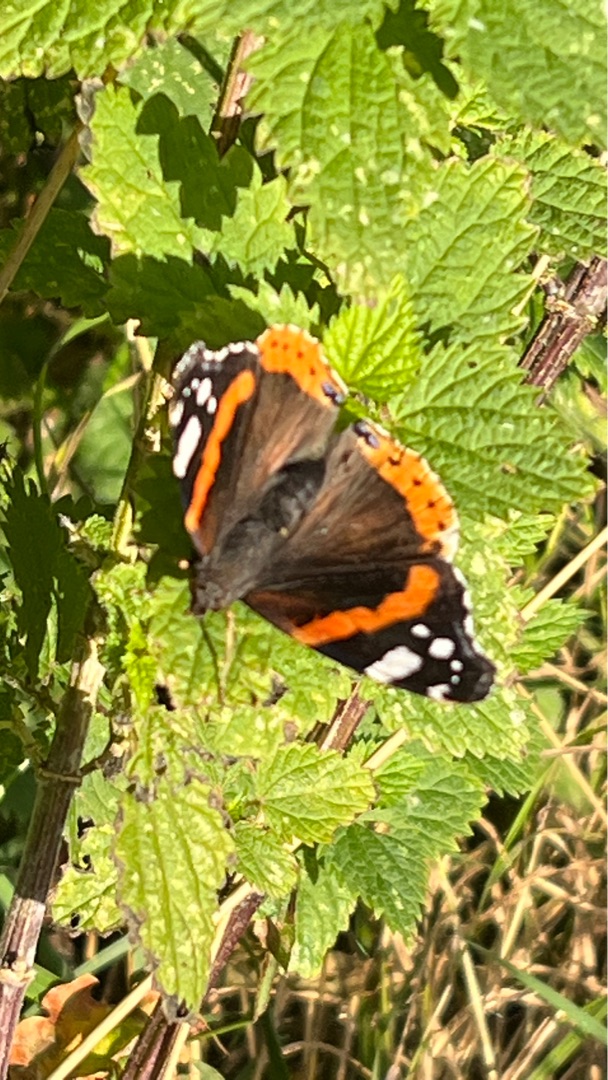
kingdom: Animalia
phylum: Arthropoda
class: Insecta
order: Lepidoptera
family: Nymphalidae
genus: Vanessa
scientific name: Vanessa atalanta
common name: Admiral
